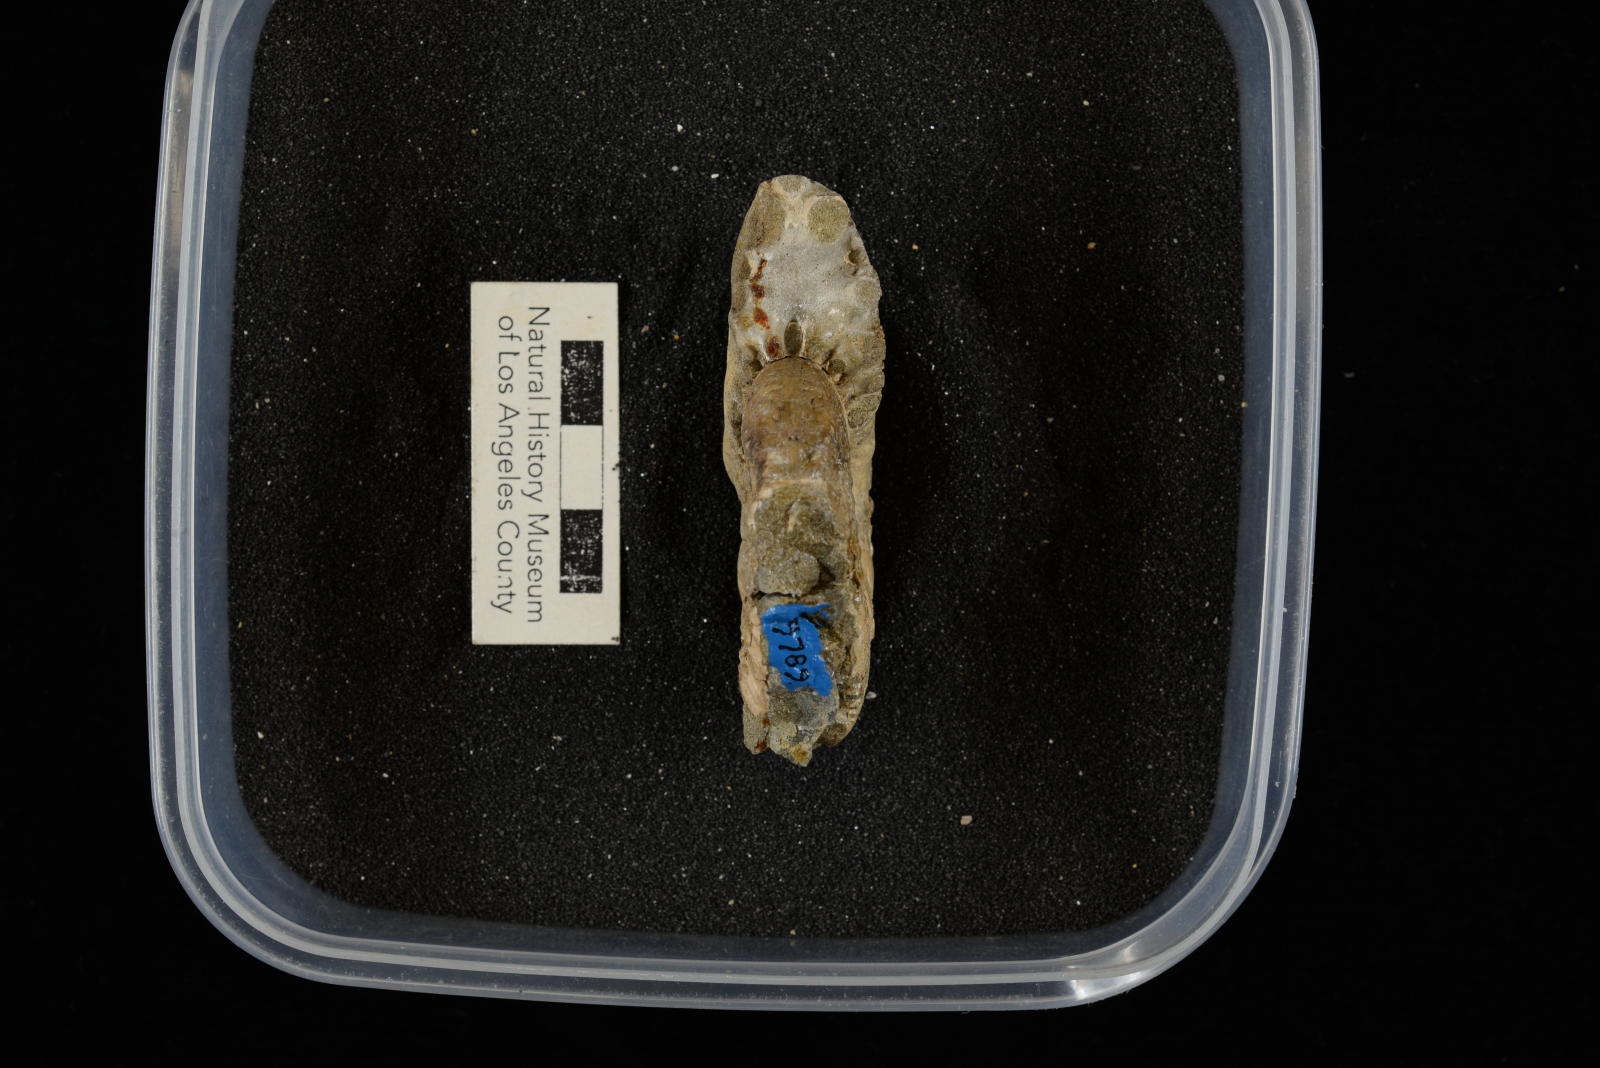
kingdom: Animalia
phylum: Mollusca
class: Cephalopoda
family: Pachydiscidae
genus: Canadoceras
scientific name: Canadoceras mysticum
